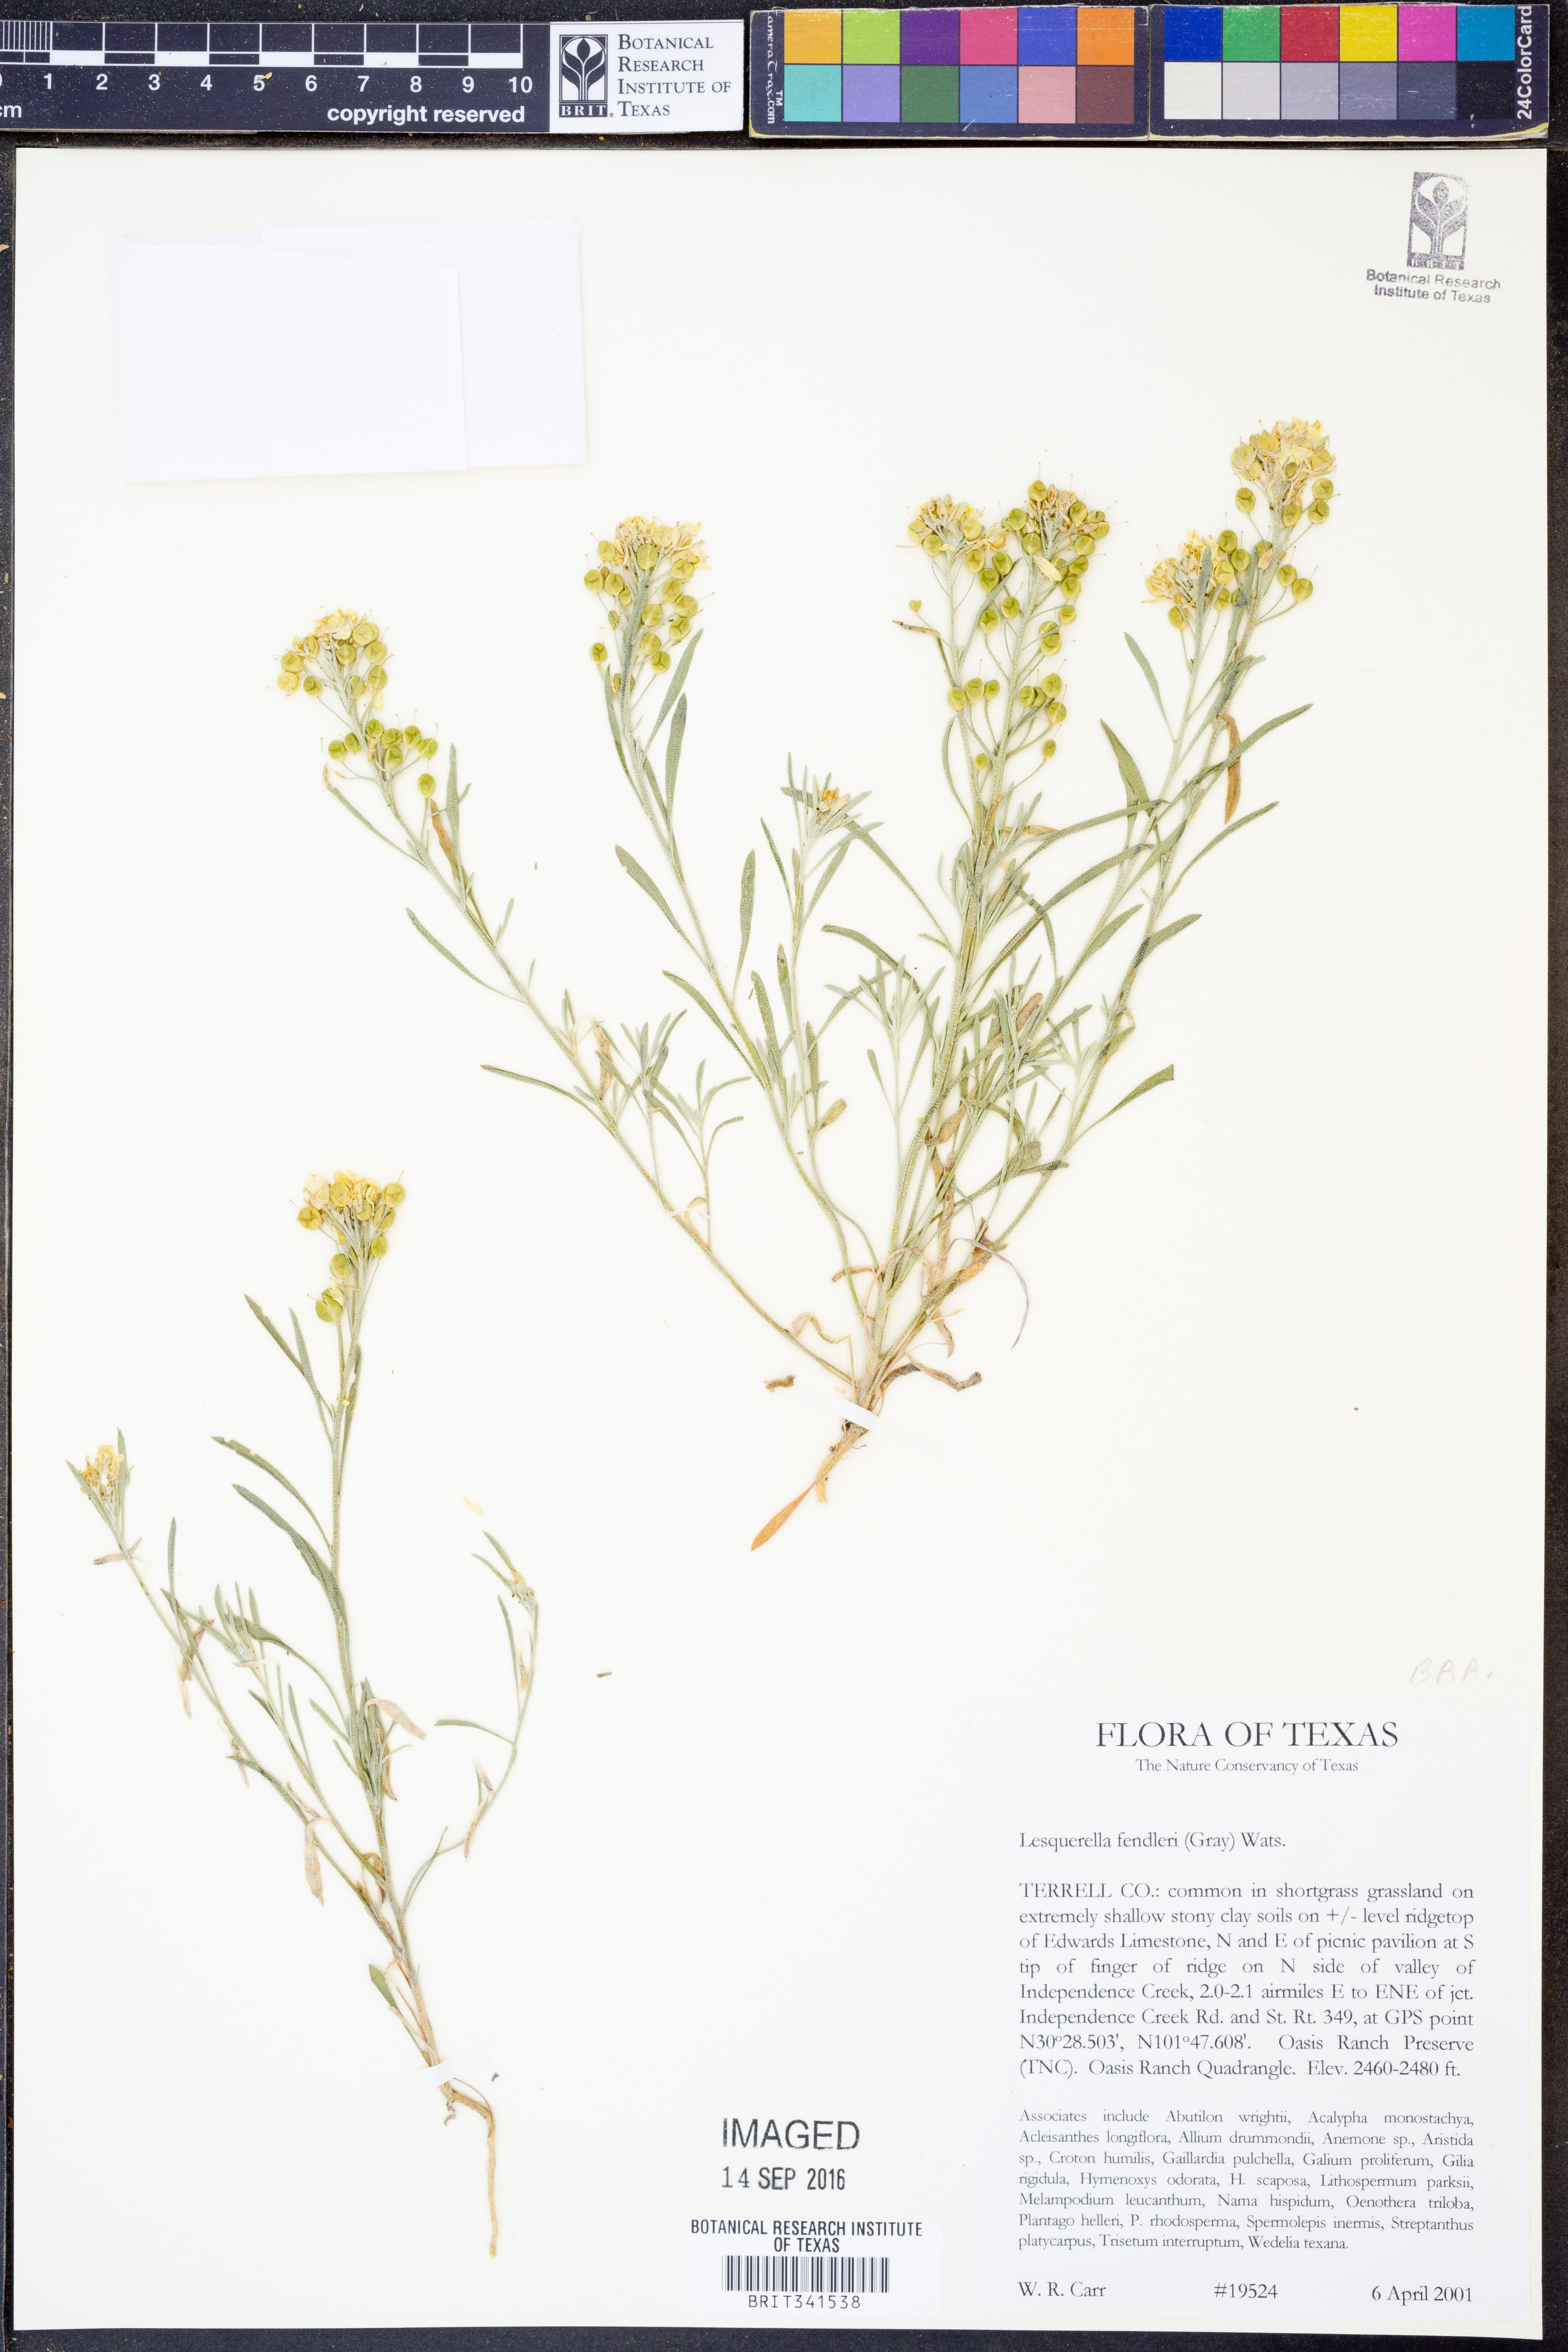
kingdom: Plantae
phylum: Tracheophyta
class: Magnoliopsida
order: Brassicales
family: Brassicaceae
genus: Physaria
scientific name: Physaria fendleri
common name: Fendler's bladderpod
